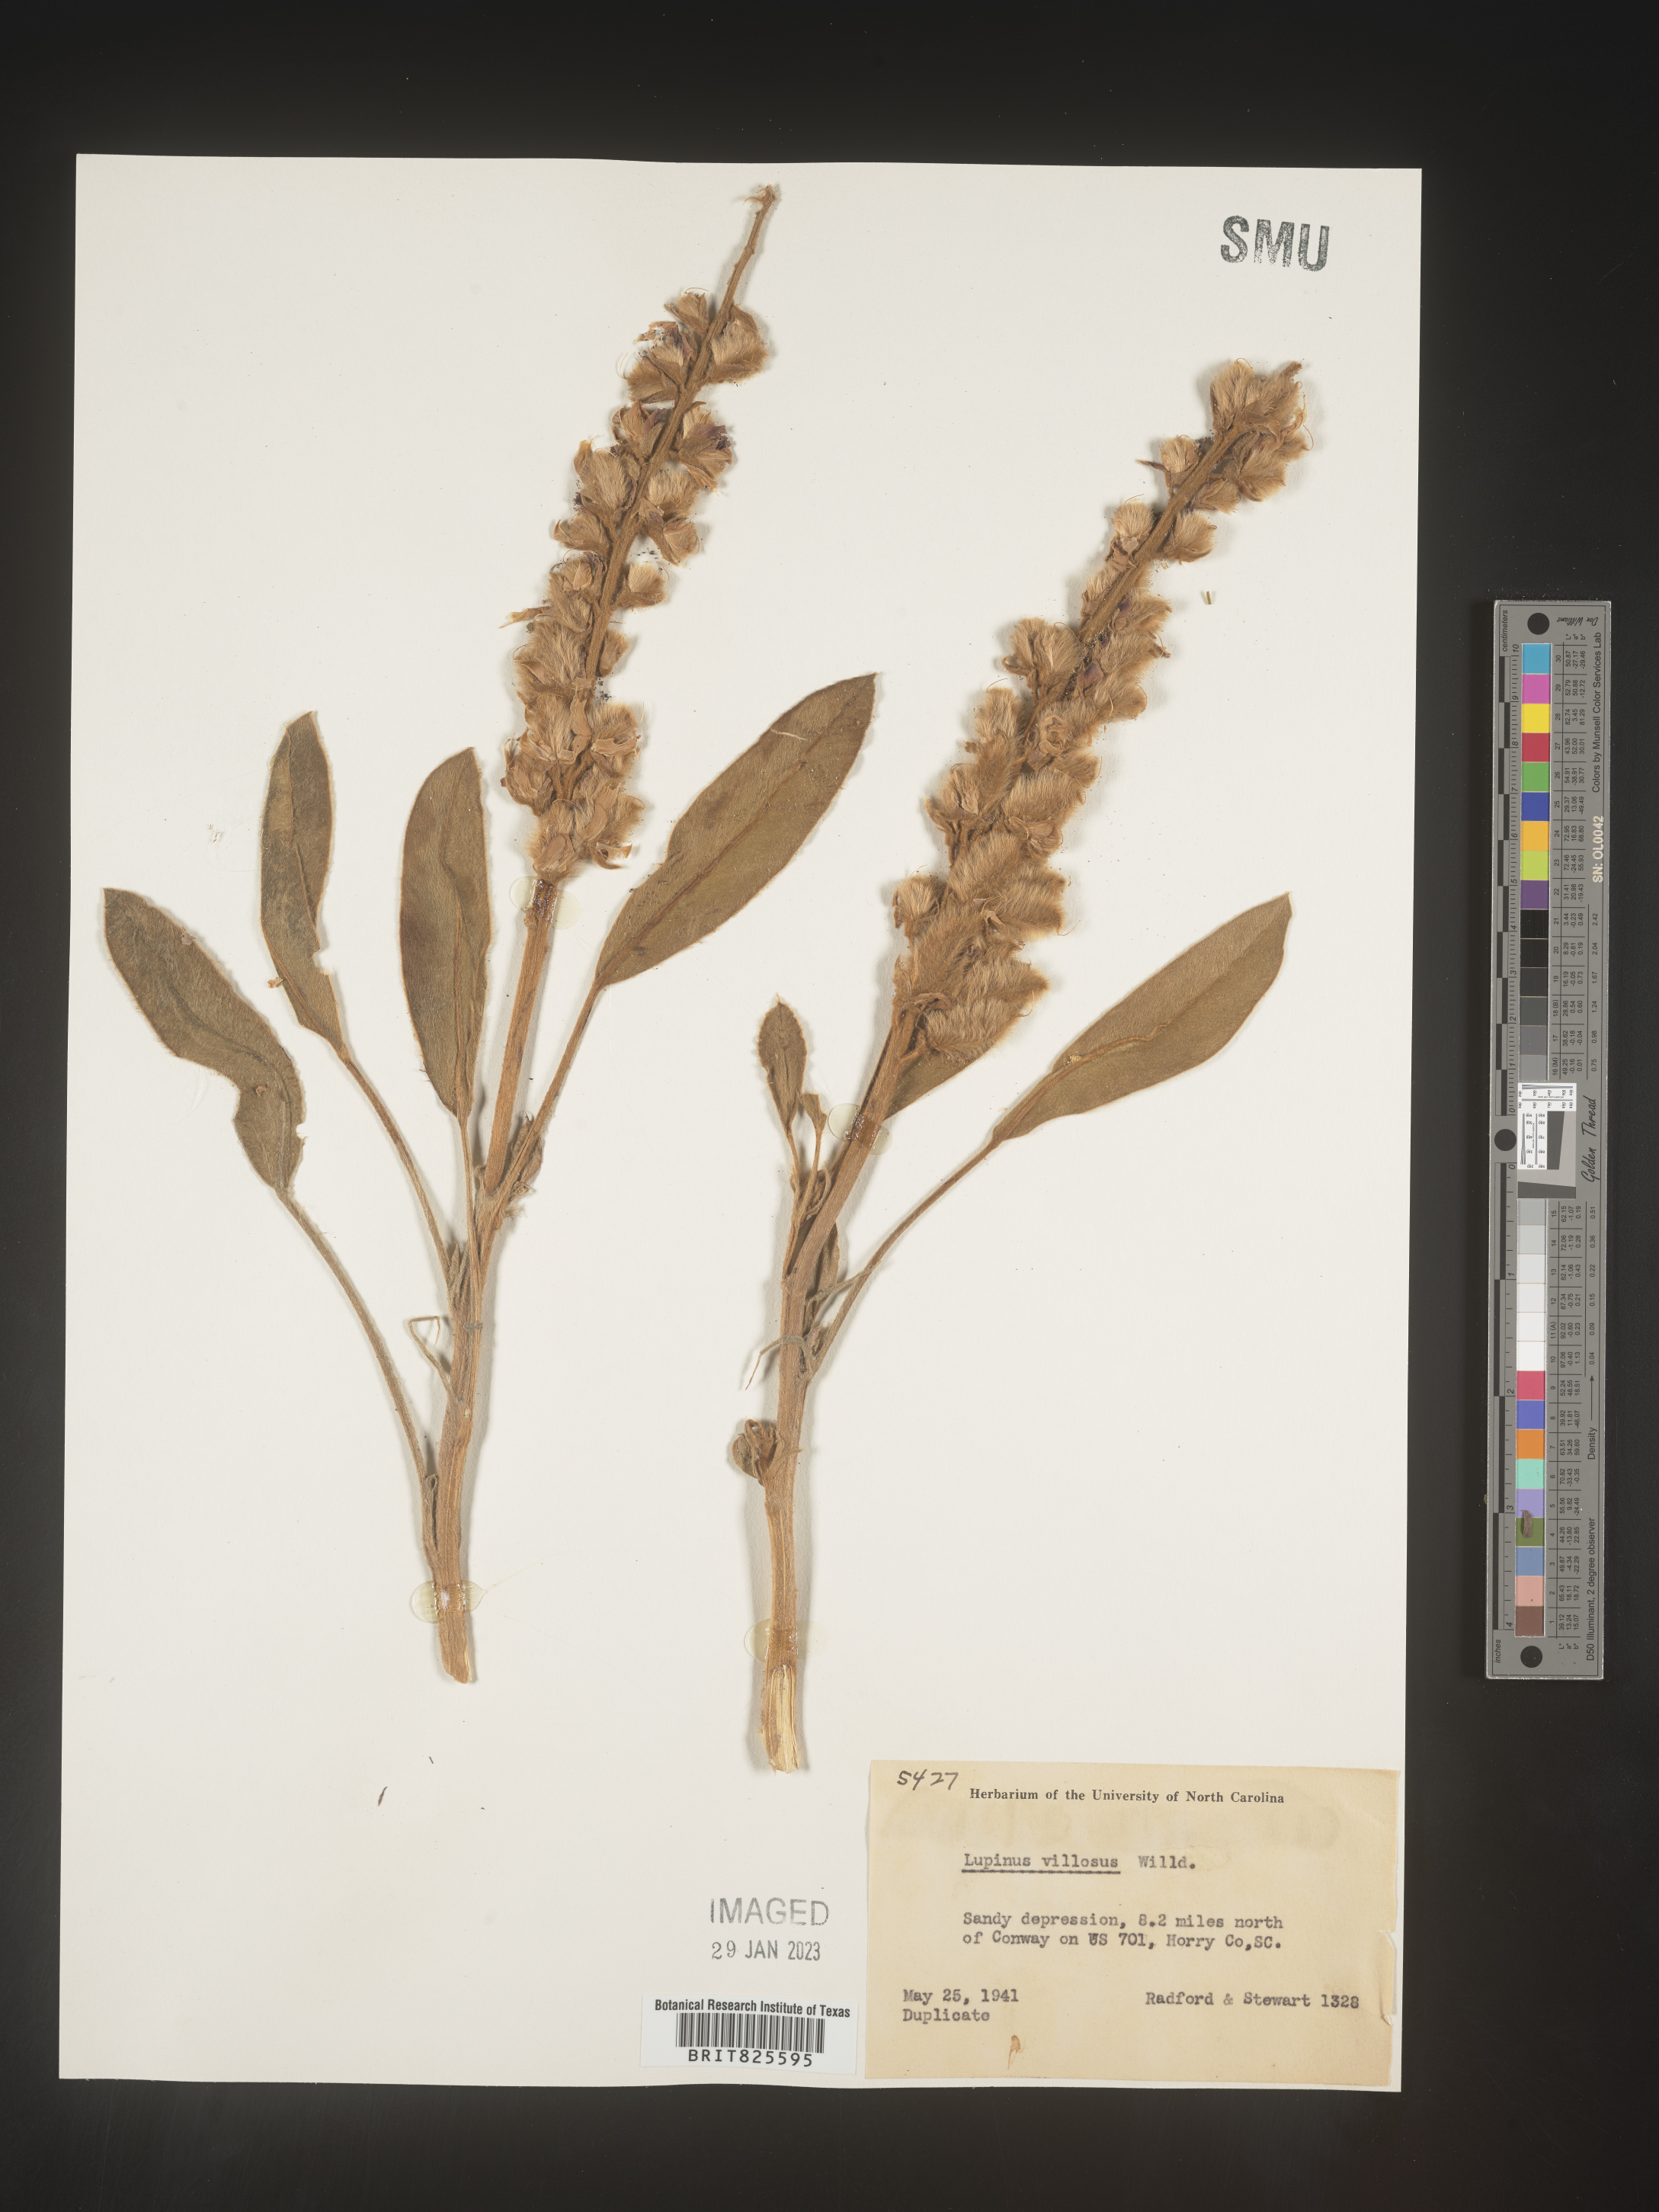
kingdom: Plantae
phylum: Tracheophyta
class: Magnoliopsida
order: Fabales
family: Fabaceae
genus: Lupinus
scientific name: Lupinus villosus
